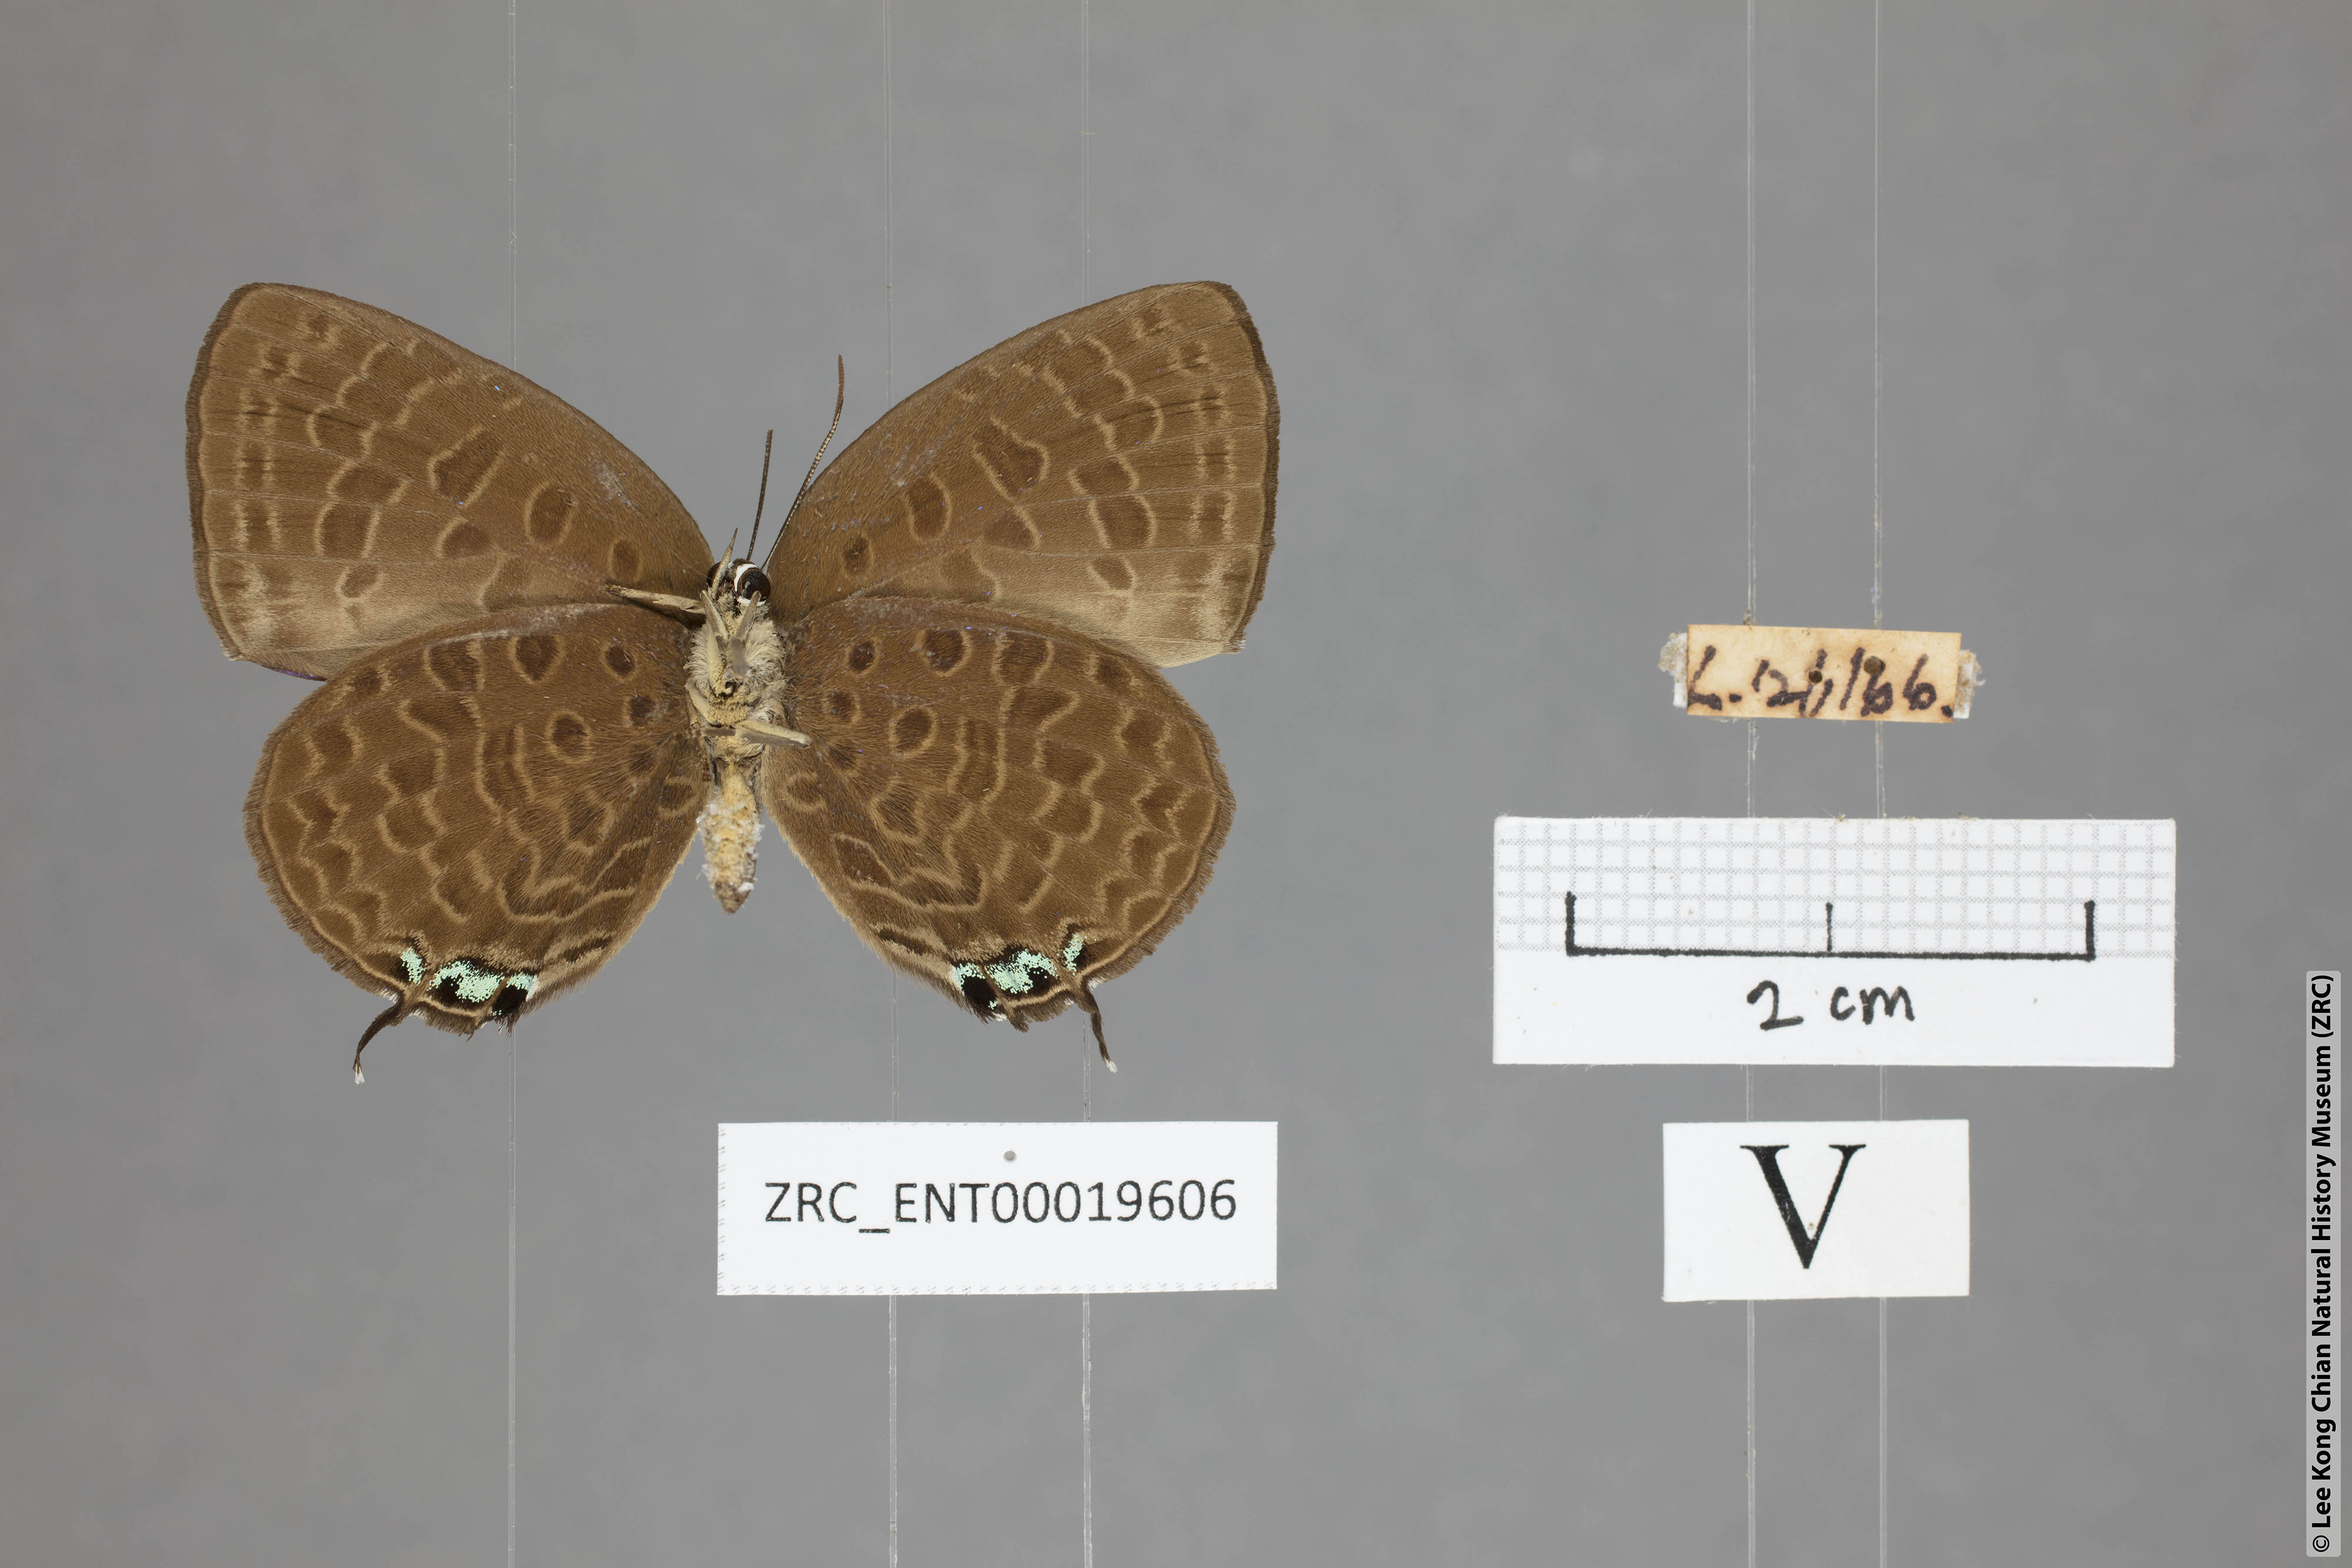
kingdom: Animalia
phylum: Arthropoda
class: Insecta
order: Lepidoptera
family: Lycaenidae
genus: Arhopala
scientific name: Arhopala atosia
